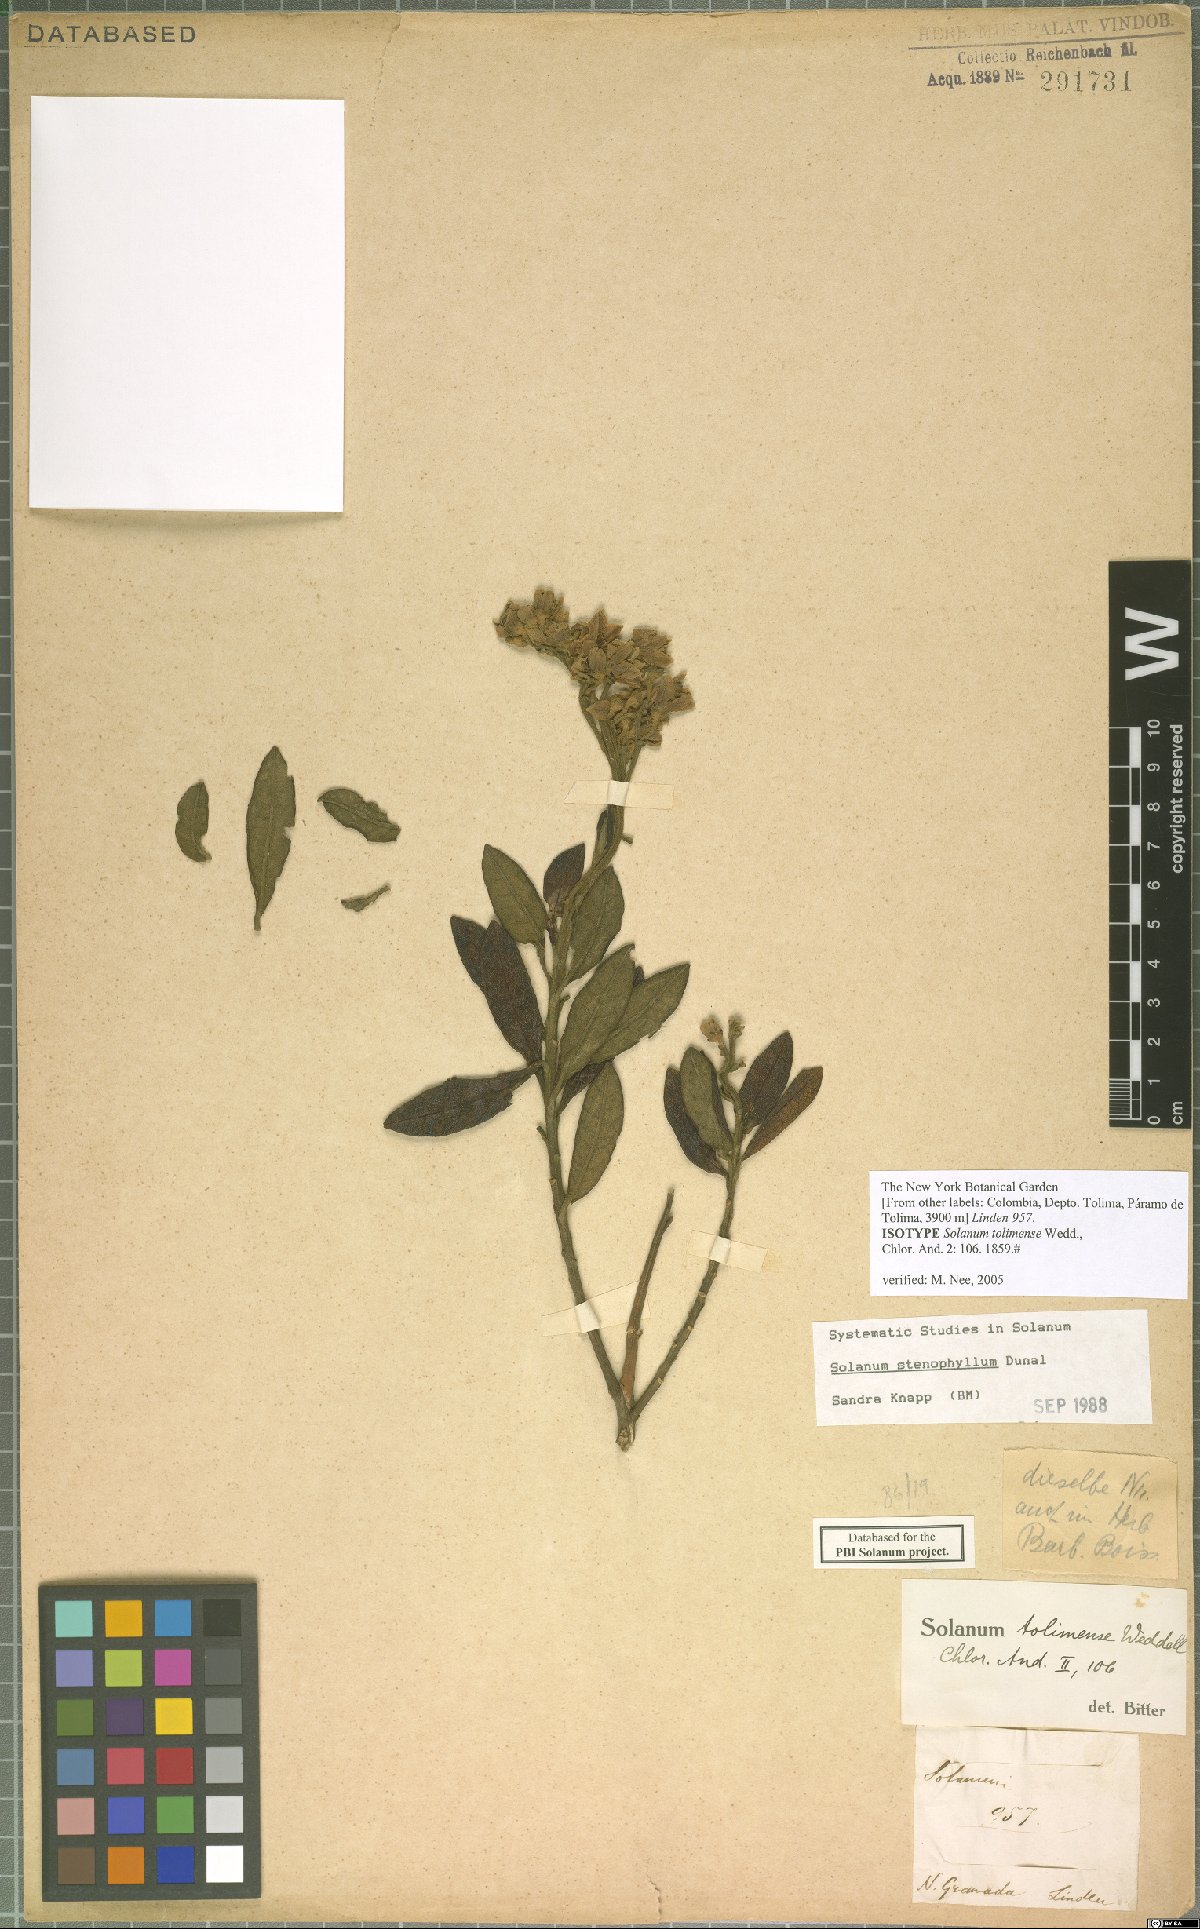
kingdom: Plantae
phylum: Tracheophyta
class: Magnoliopsida
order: Solanales
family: Solanaceae
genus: Solanum
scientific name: Solanum stenophyllum
